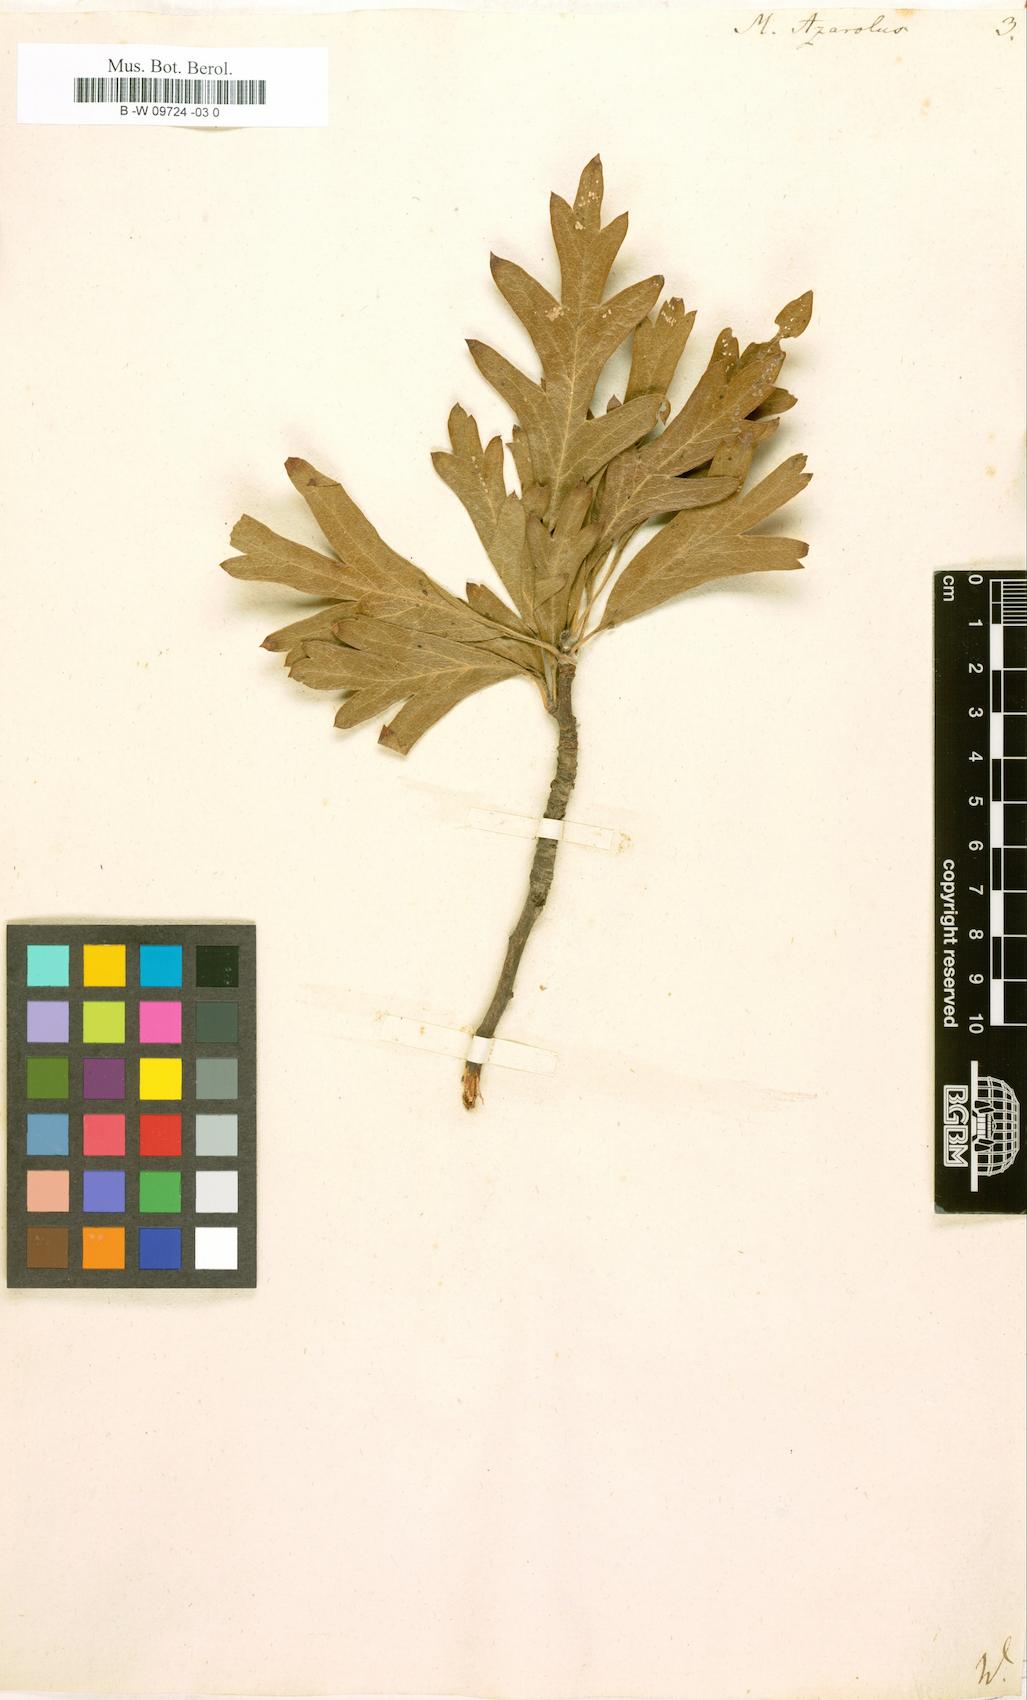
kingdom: Plantae
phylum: Tracheophyta
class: Magnoliopsida
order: Rosales
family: Rosaceae
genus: Crataegus
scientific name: Crataegus
